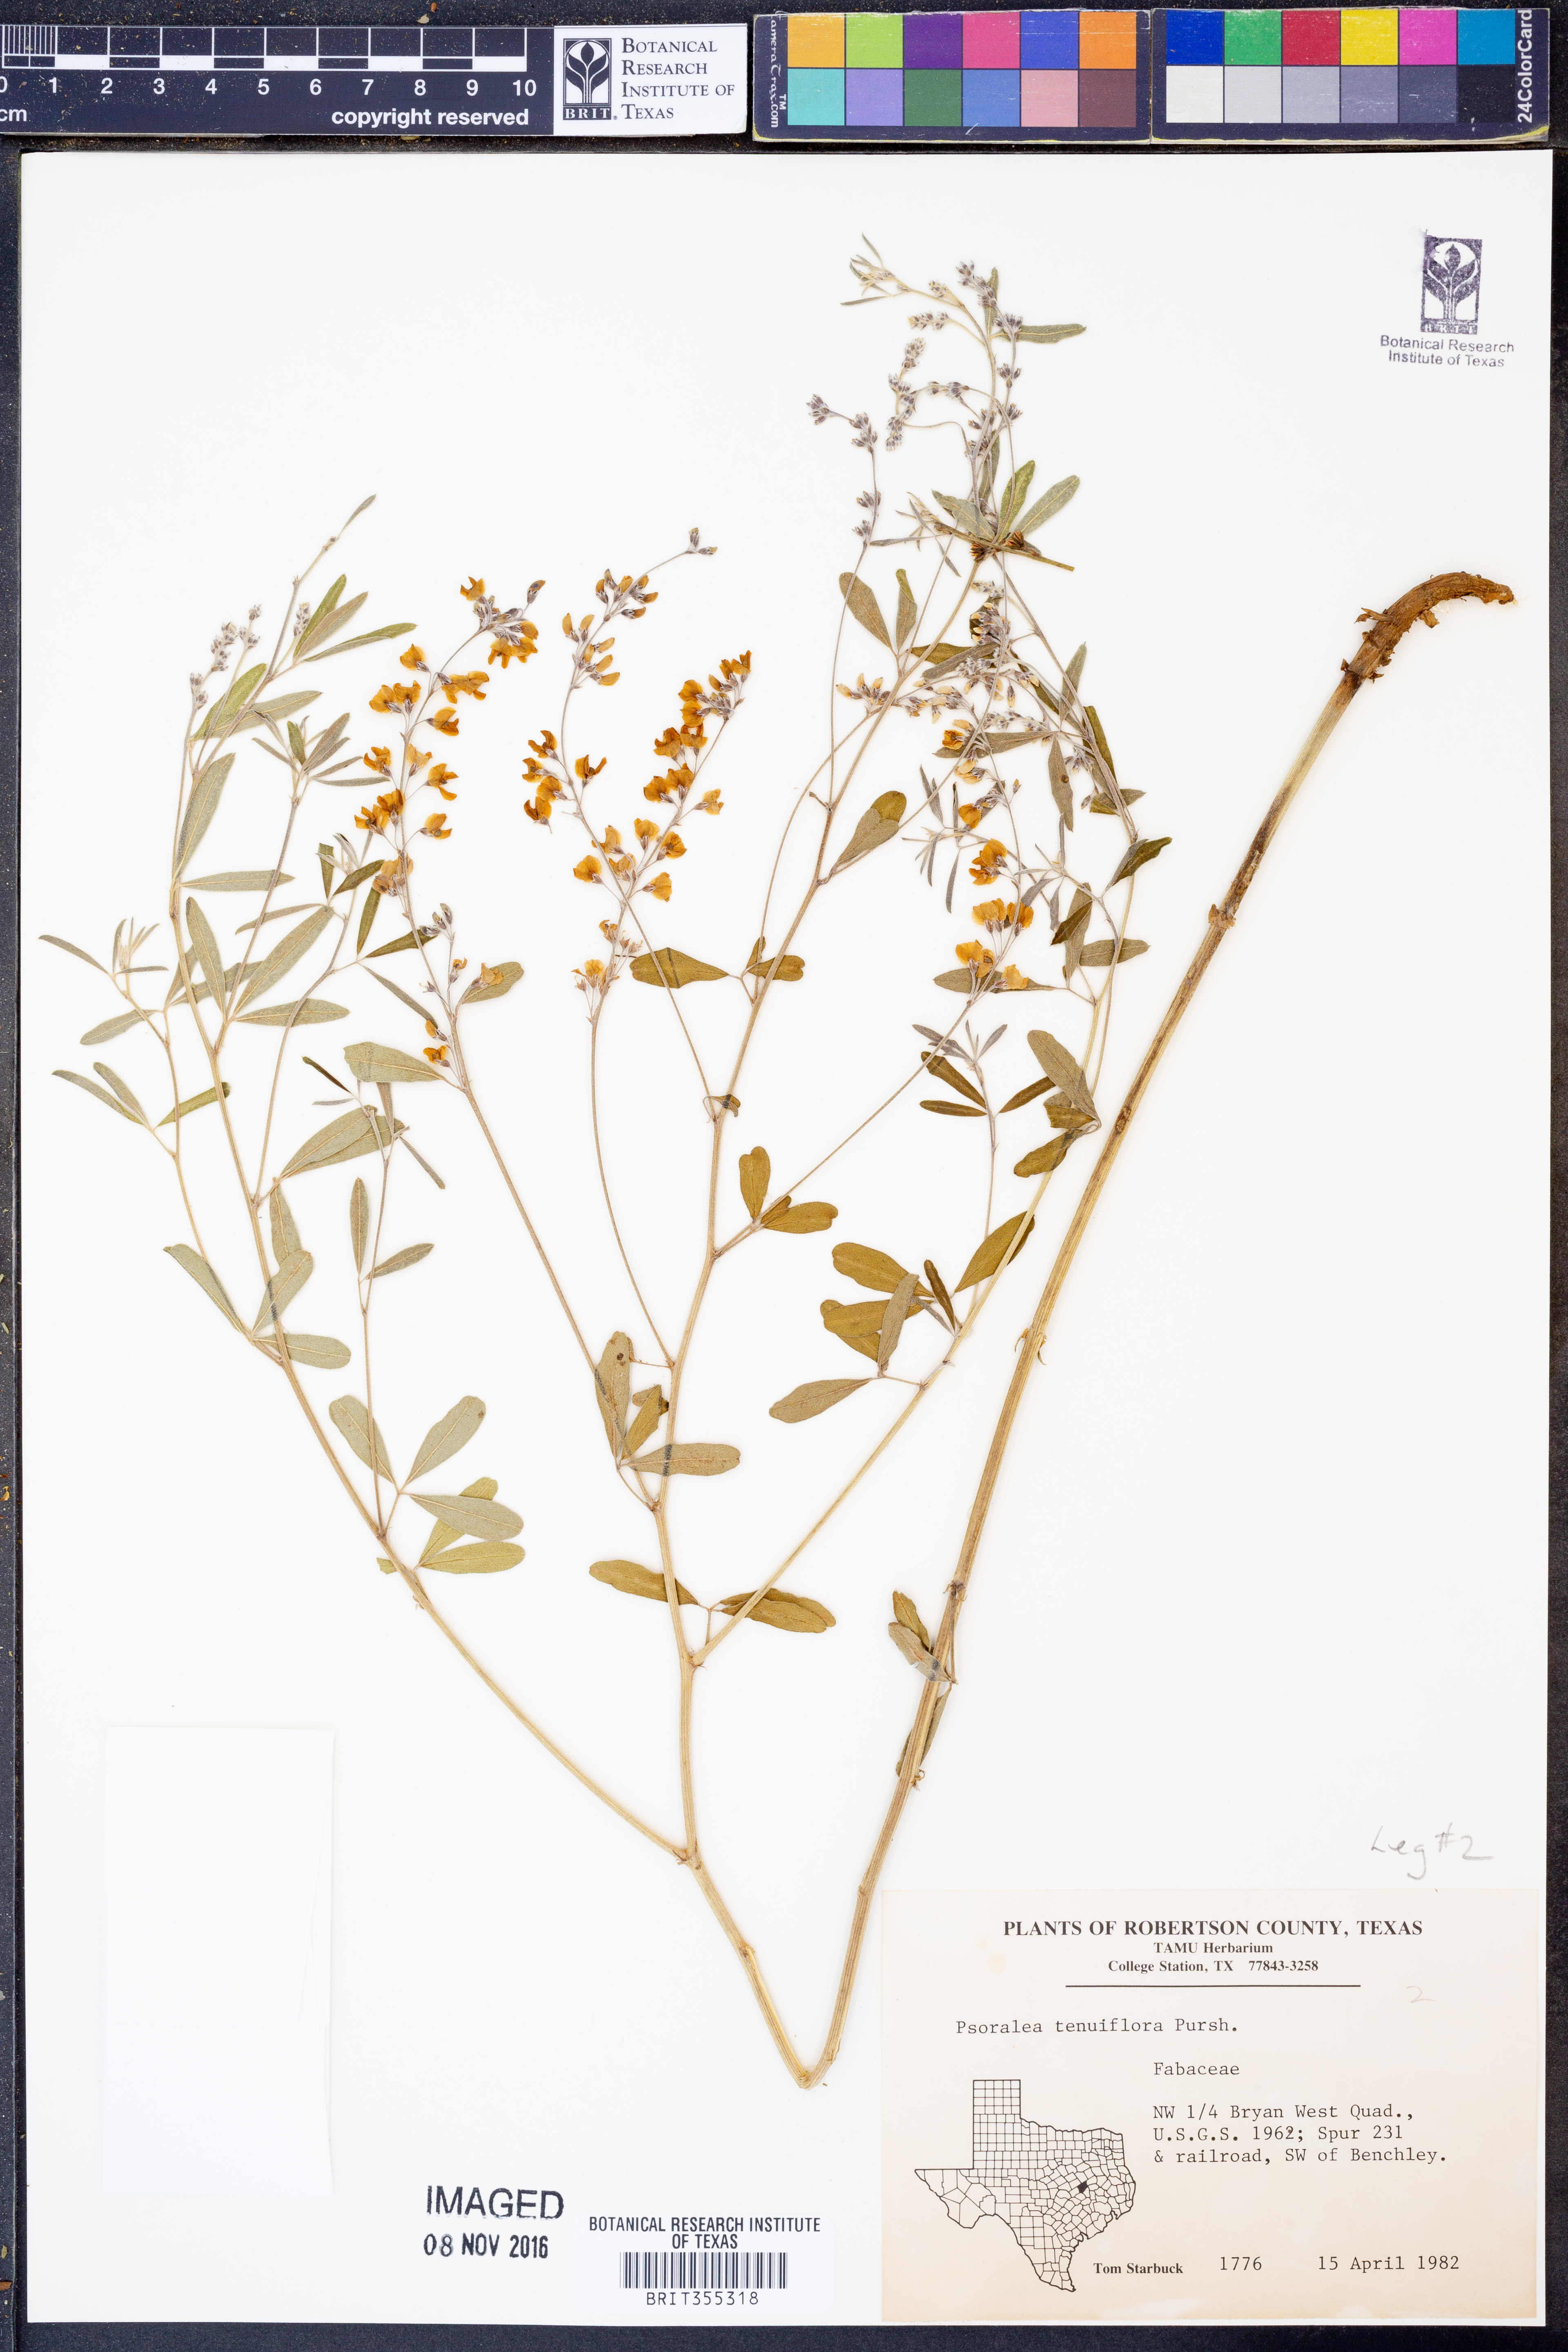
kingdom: Plantae
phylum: Tracheophyta
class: Magnoliopsida
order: Fabales
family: Fabaceae
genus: Pediomelum
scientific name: Pediomelum tenuiflorum
